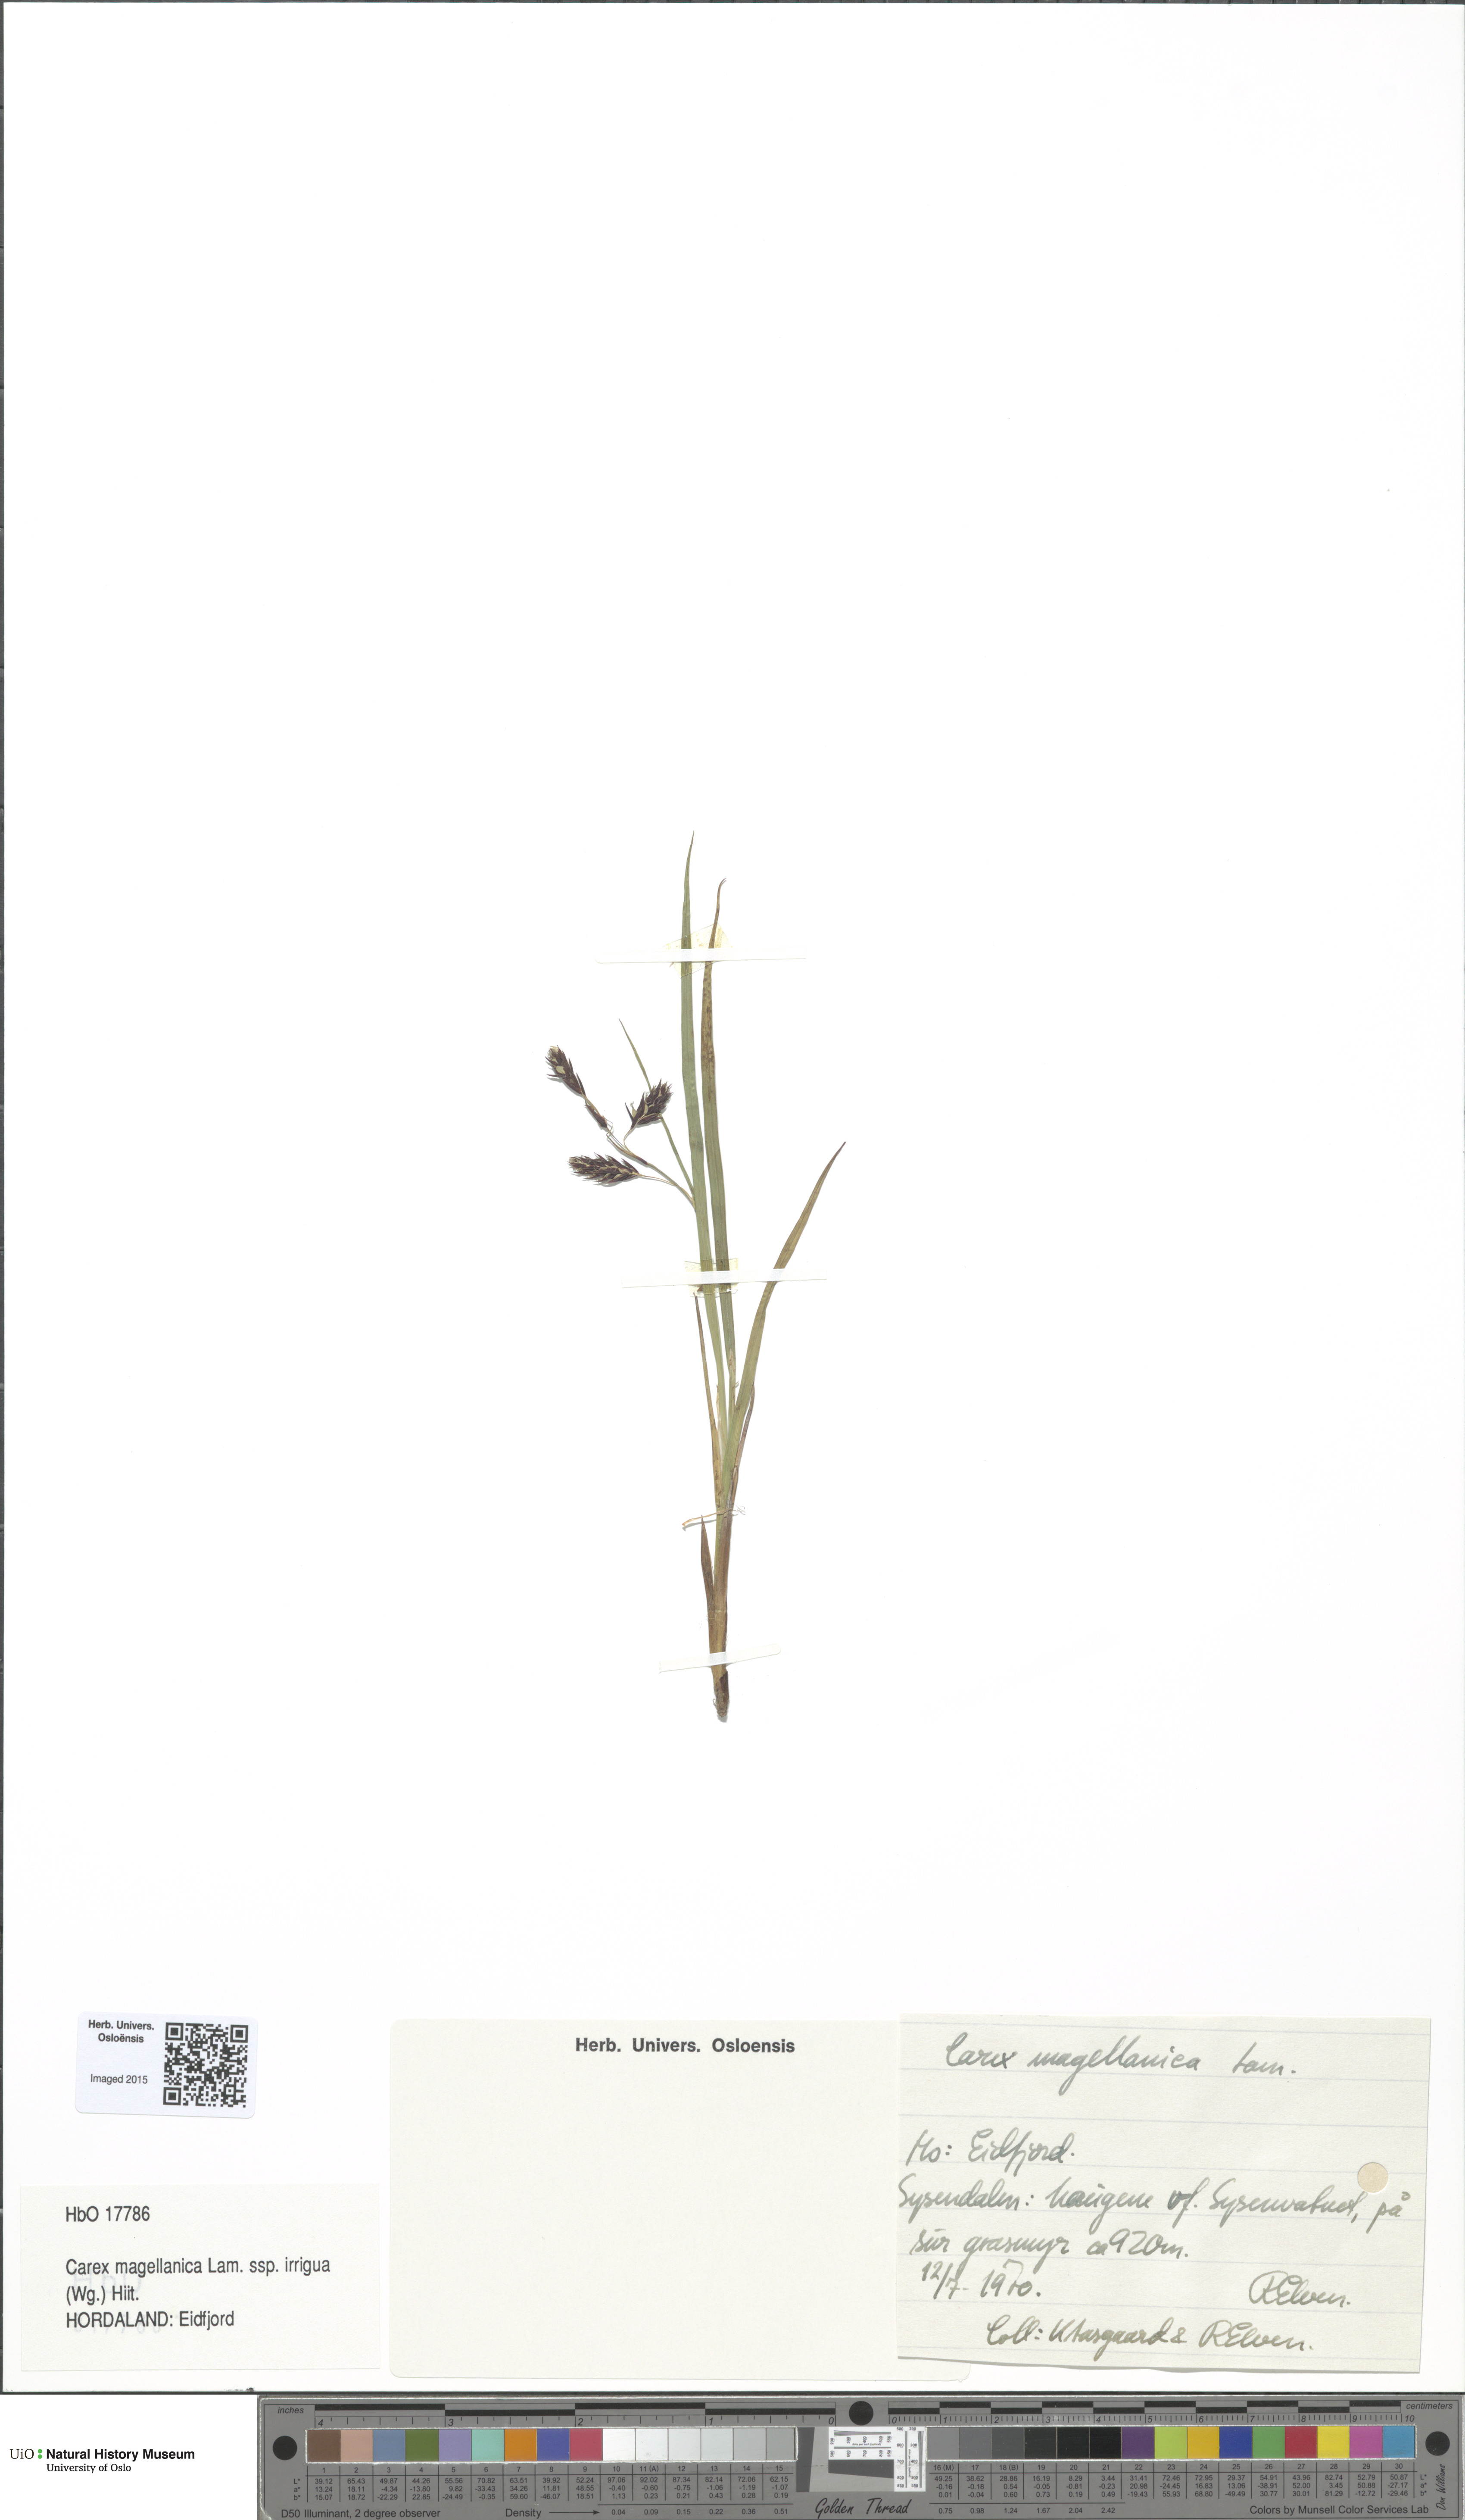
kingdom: Plantae
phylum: Tracheophyta
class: Liliopsida
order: Poales
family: Cyperaceae
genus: Carex
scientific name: Carex magellanica
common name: Bog sedge
